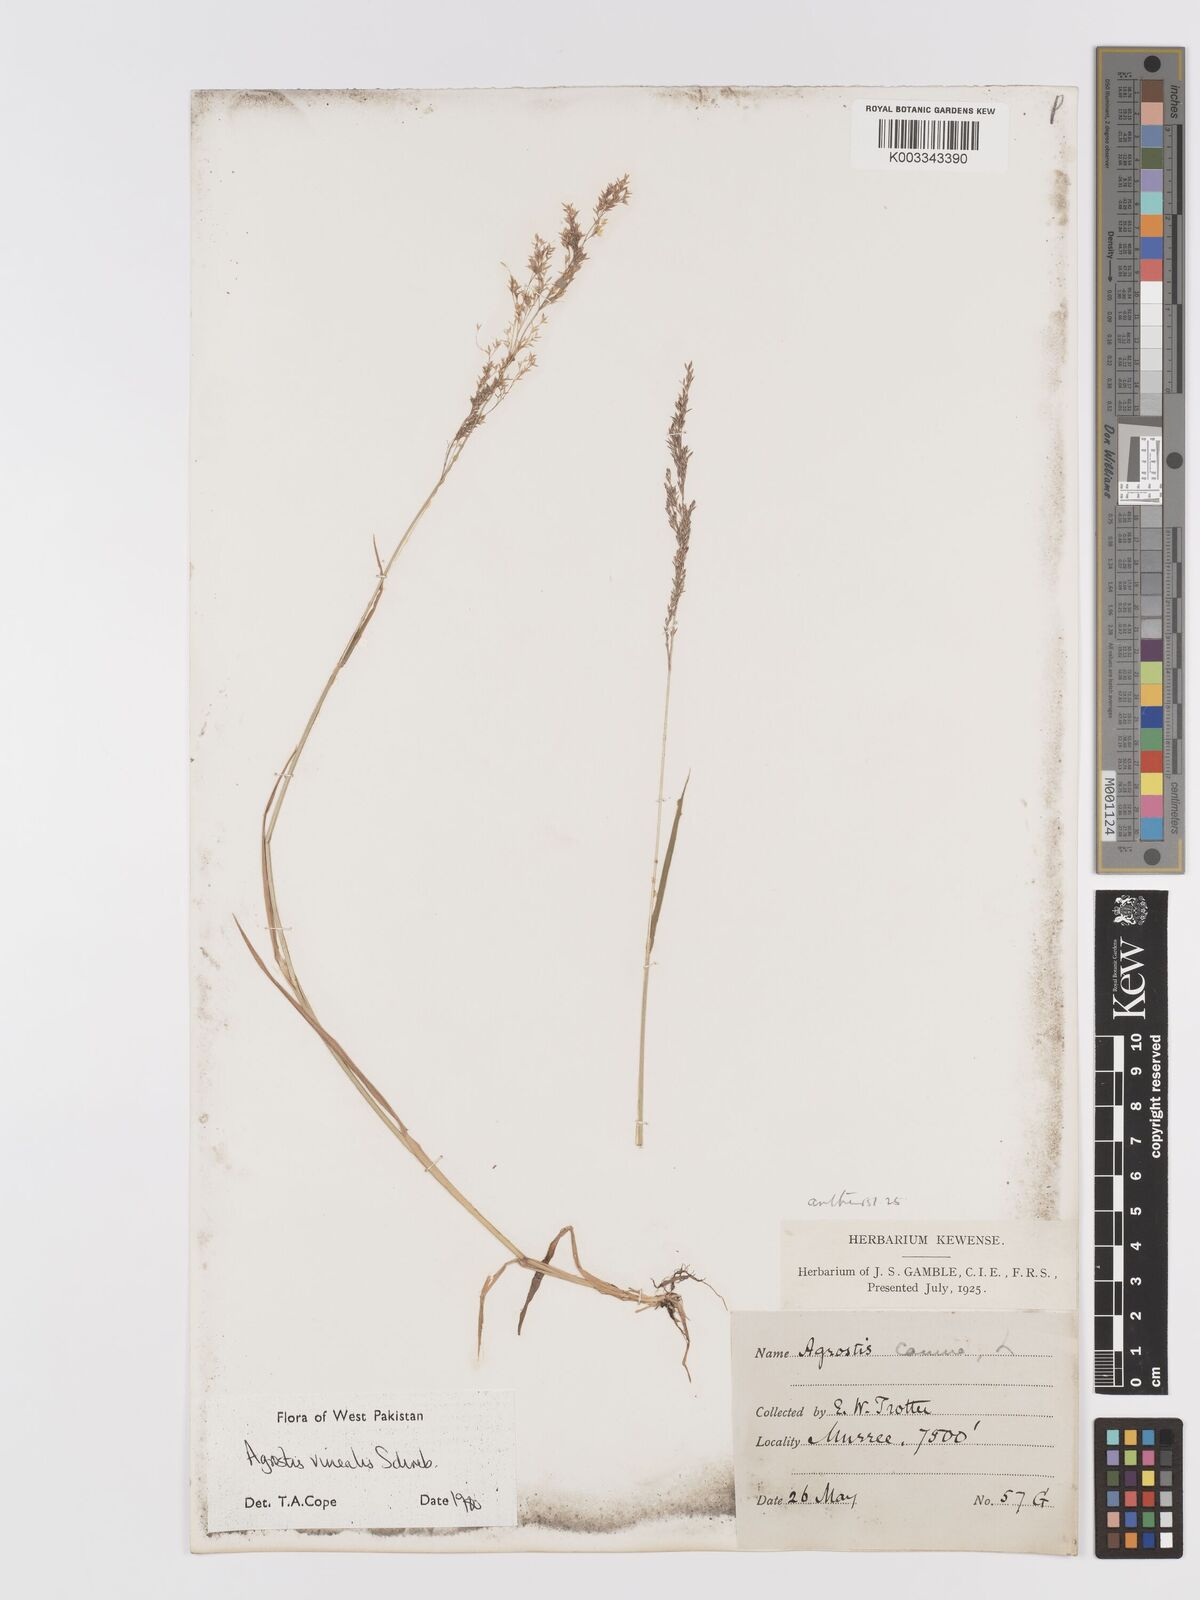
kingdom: Plantae
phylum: Tracheophyta
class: Liliopsida
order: Poales
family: Poaceae
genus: Agrostis
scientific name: Agrostis vinealis
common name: Brown bent
